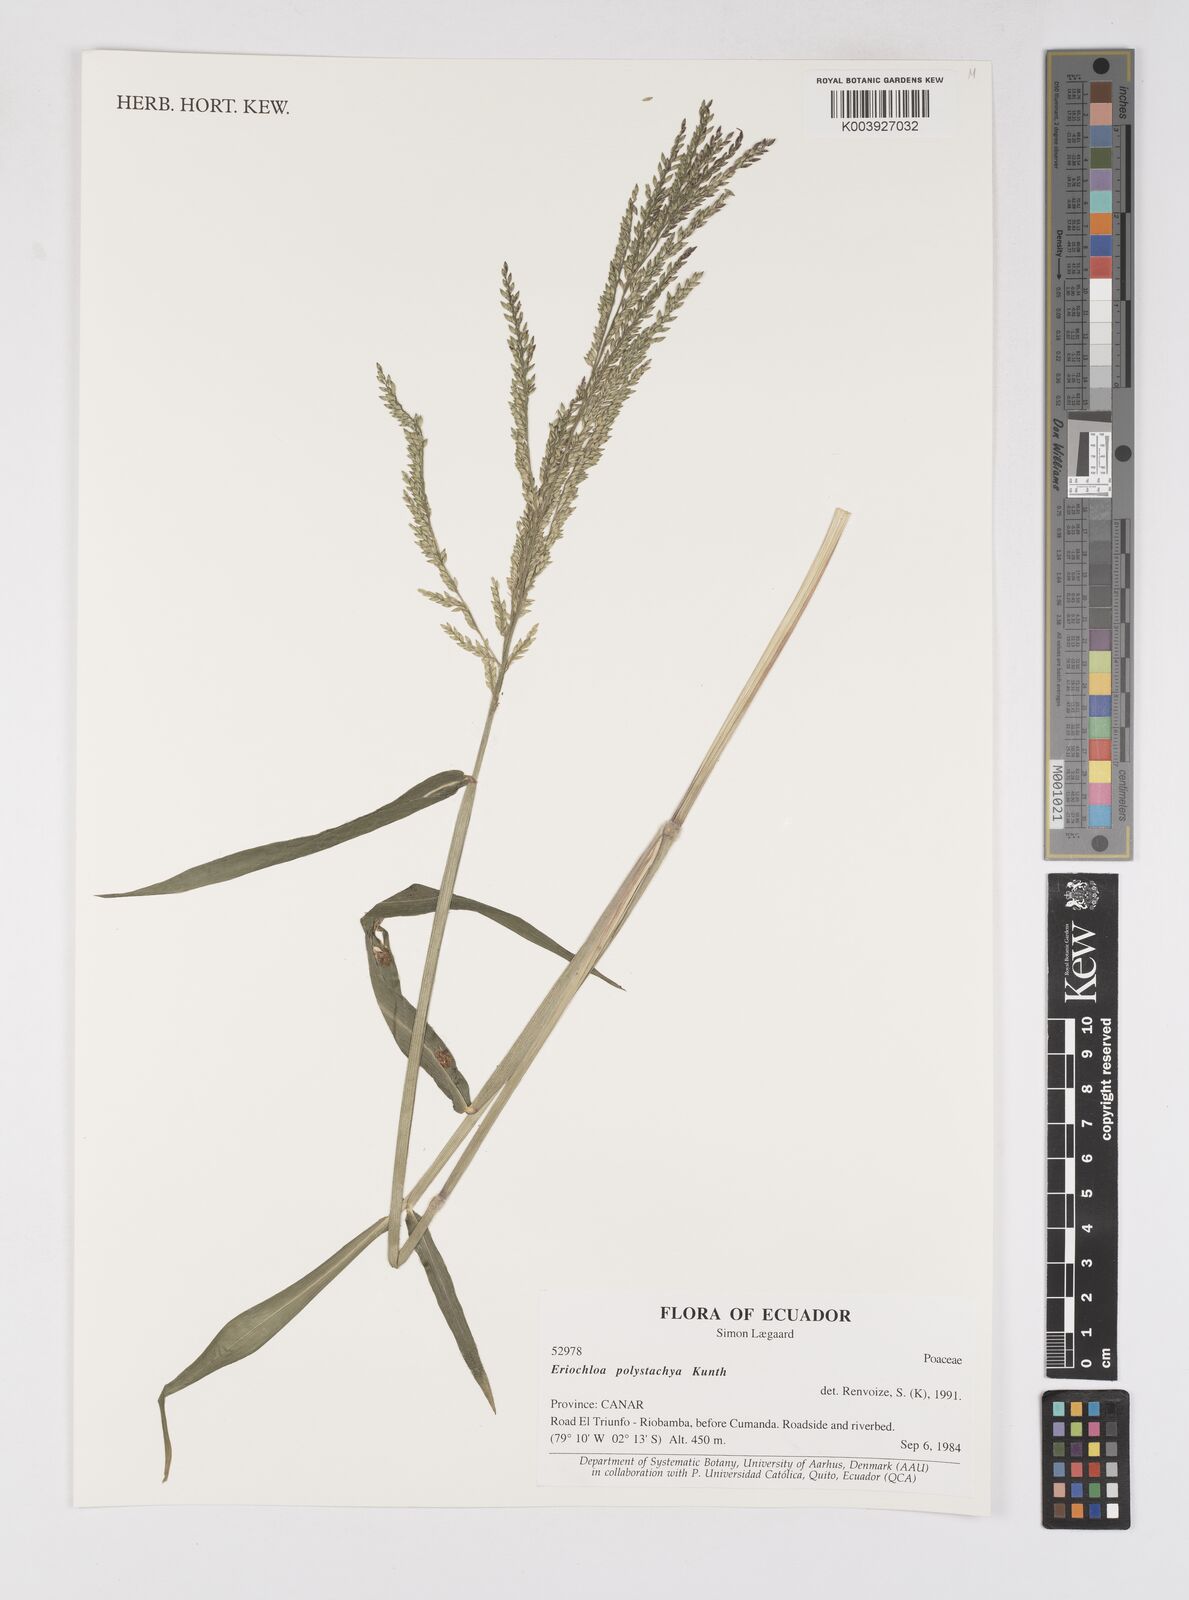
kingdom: Plantae
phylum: Tracheophyta
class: Liliopsida
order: Poales
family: Poaceae
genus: Urochloa
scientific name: Urochloa polystachya
